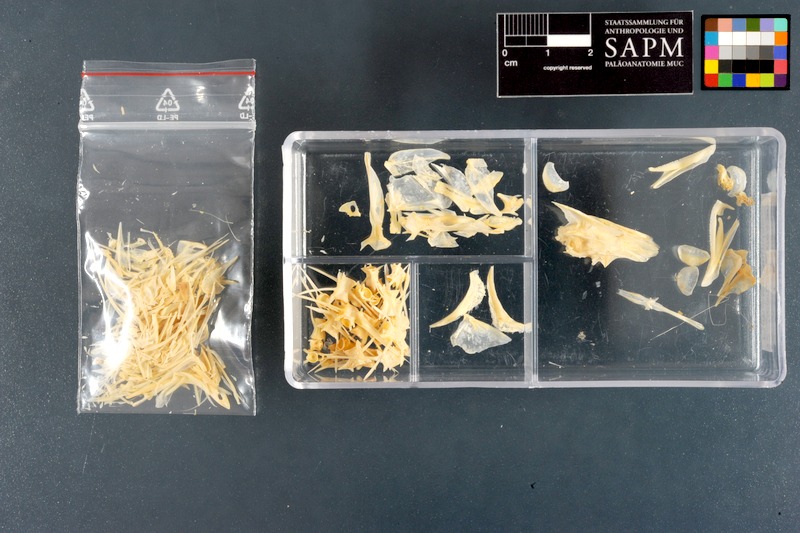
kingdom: Animalia
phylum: Chordata
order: Perciformes
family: Carangidae
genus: Scomberoides
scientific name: Scomberoides
